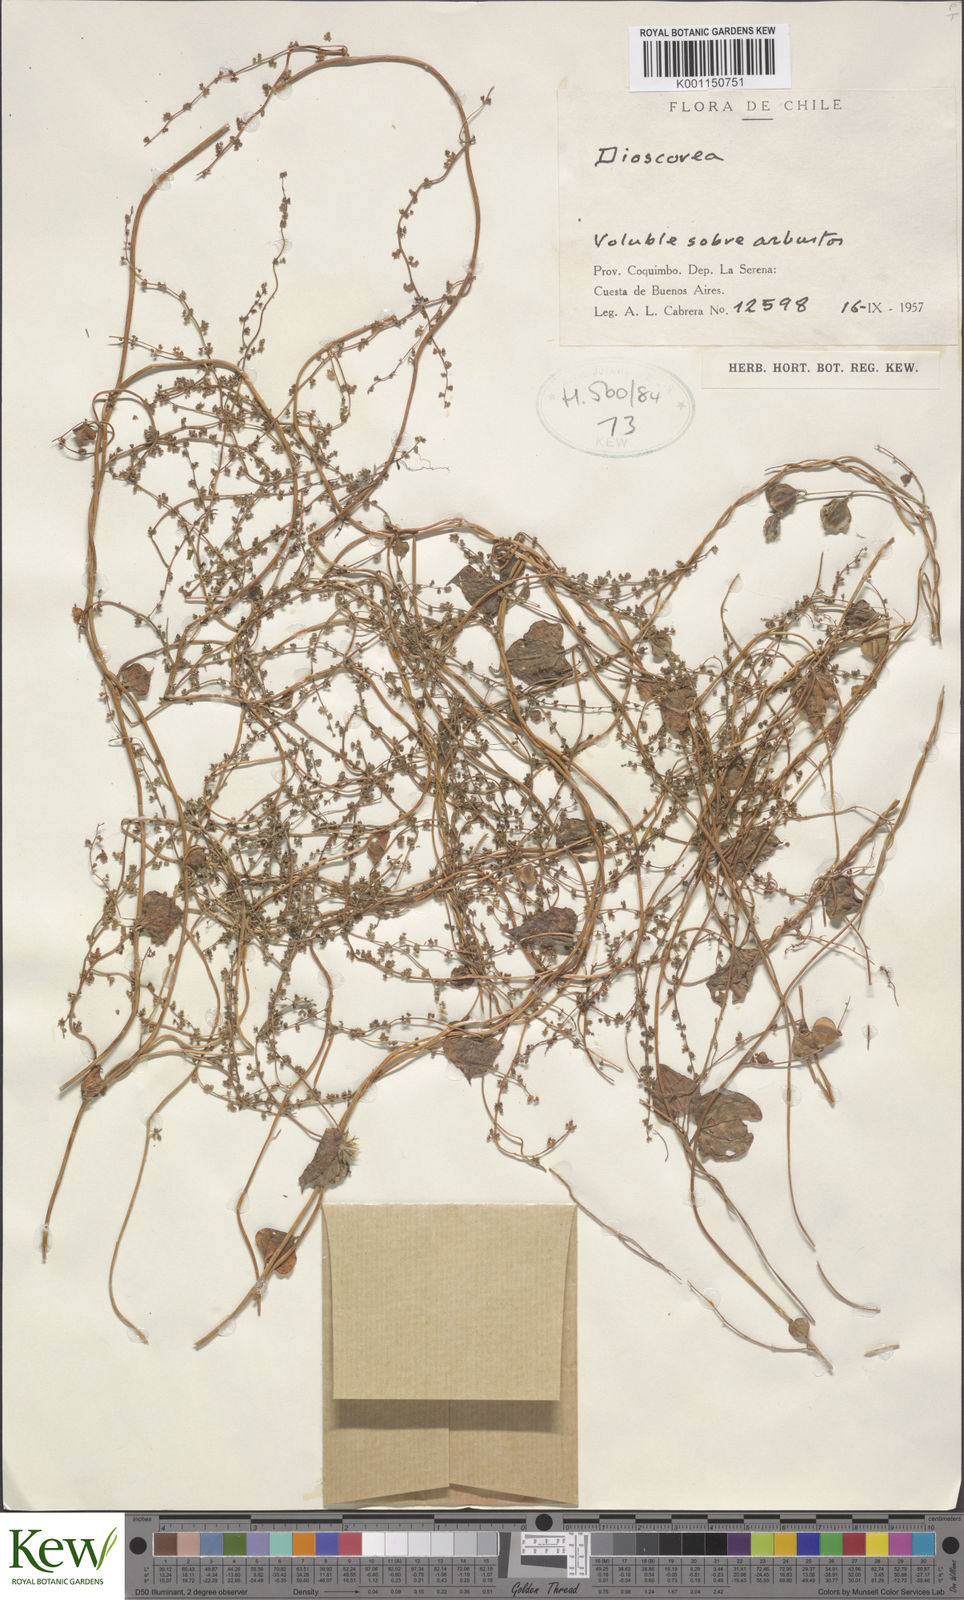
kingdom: Plantae
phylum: Tracheophyta
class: Liliopsida
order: Dioscoreales
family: Dioscoreaceae
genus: Dioscorea
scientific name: Dioscorea
